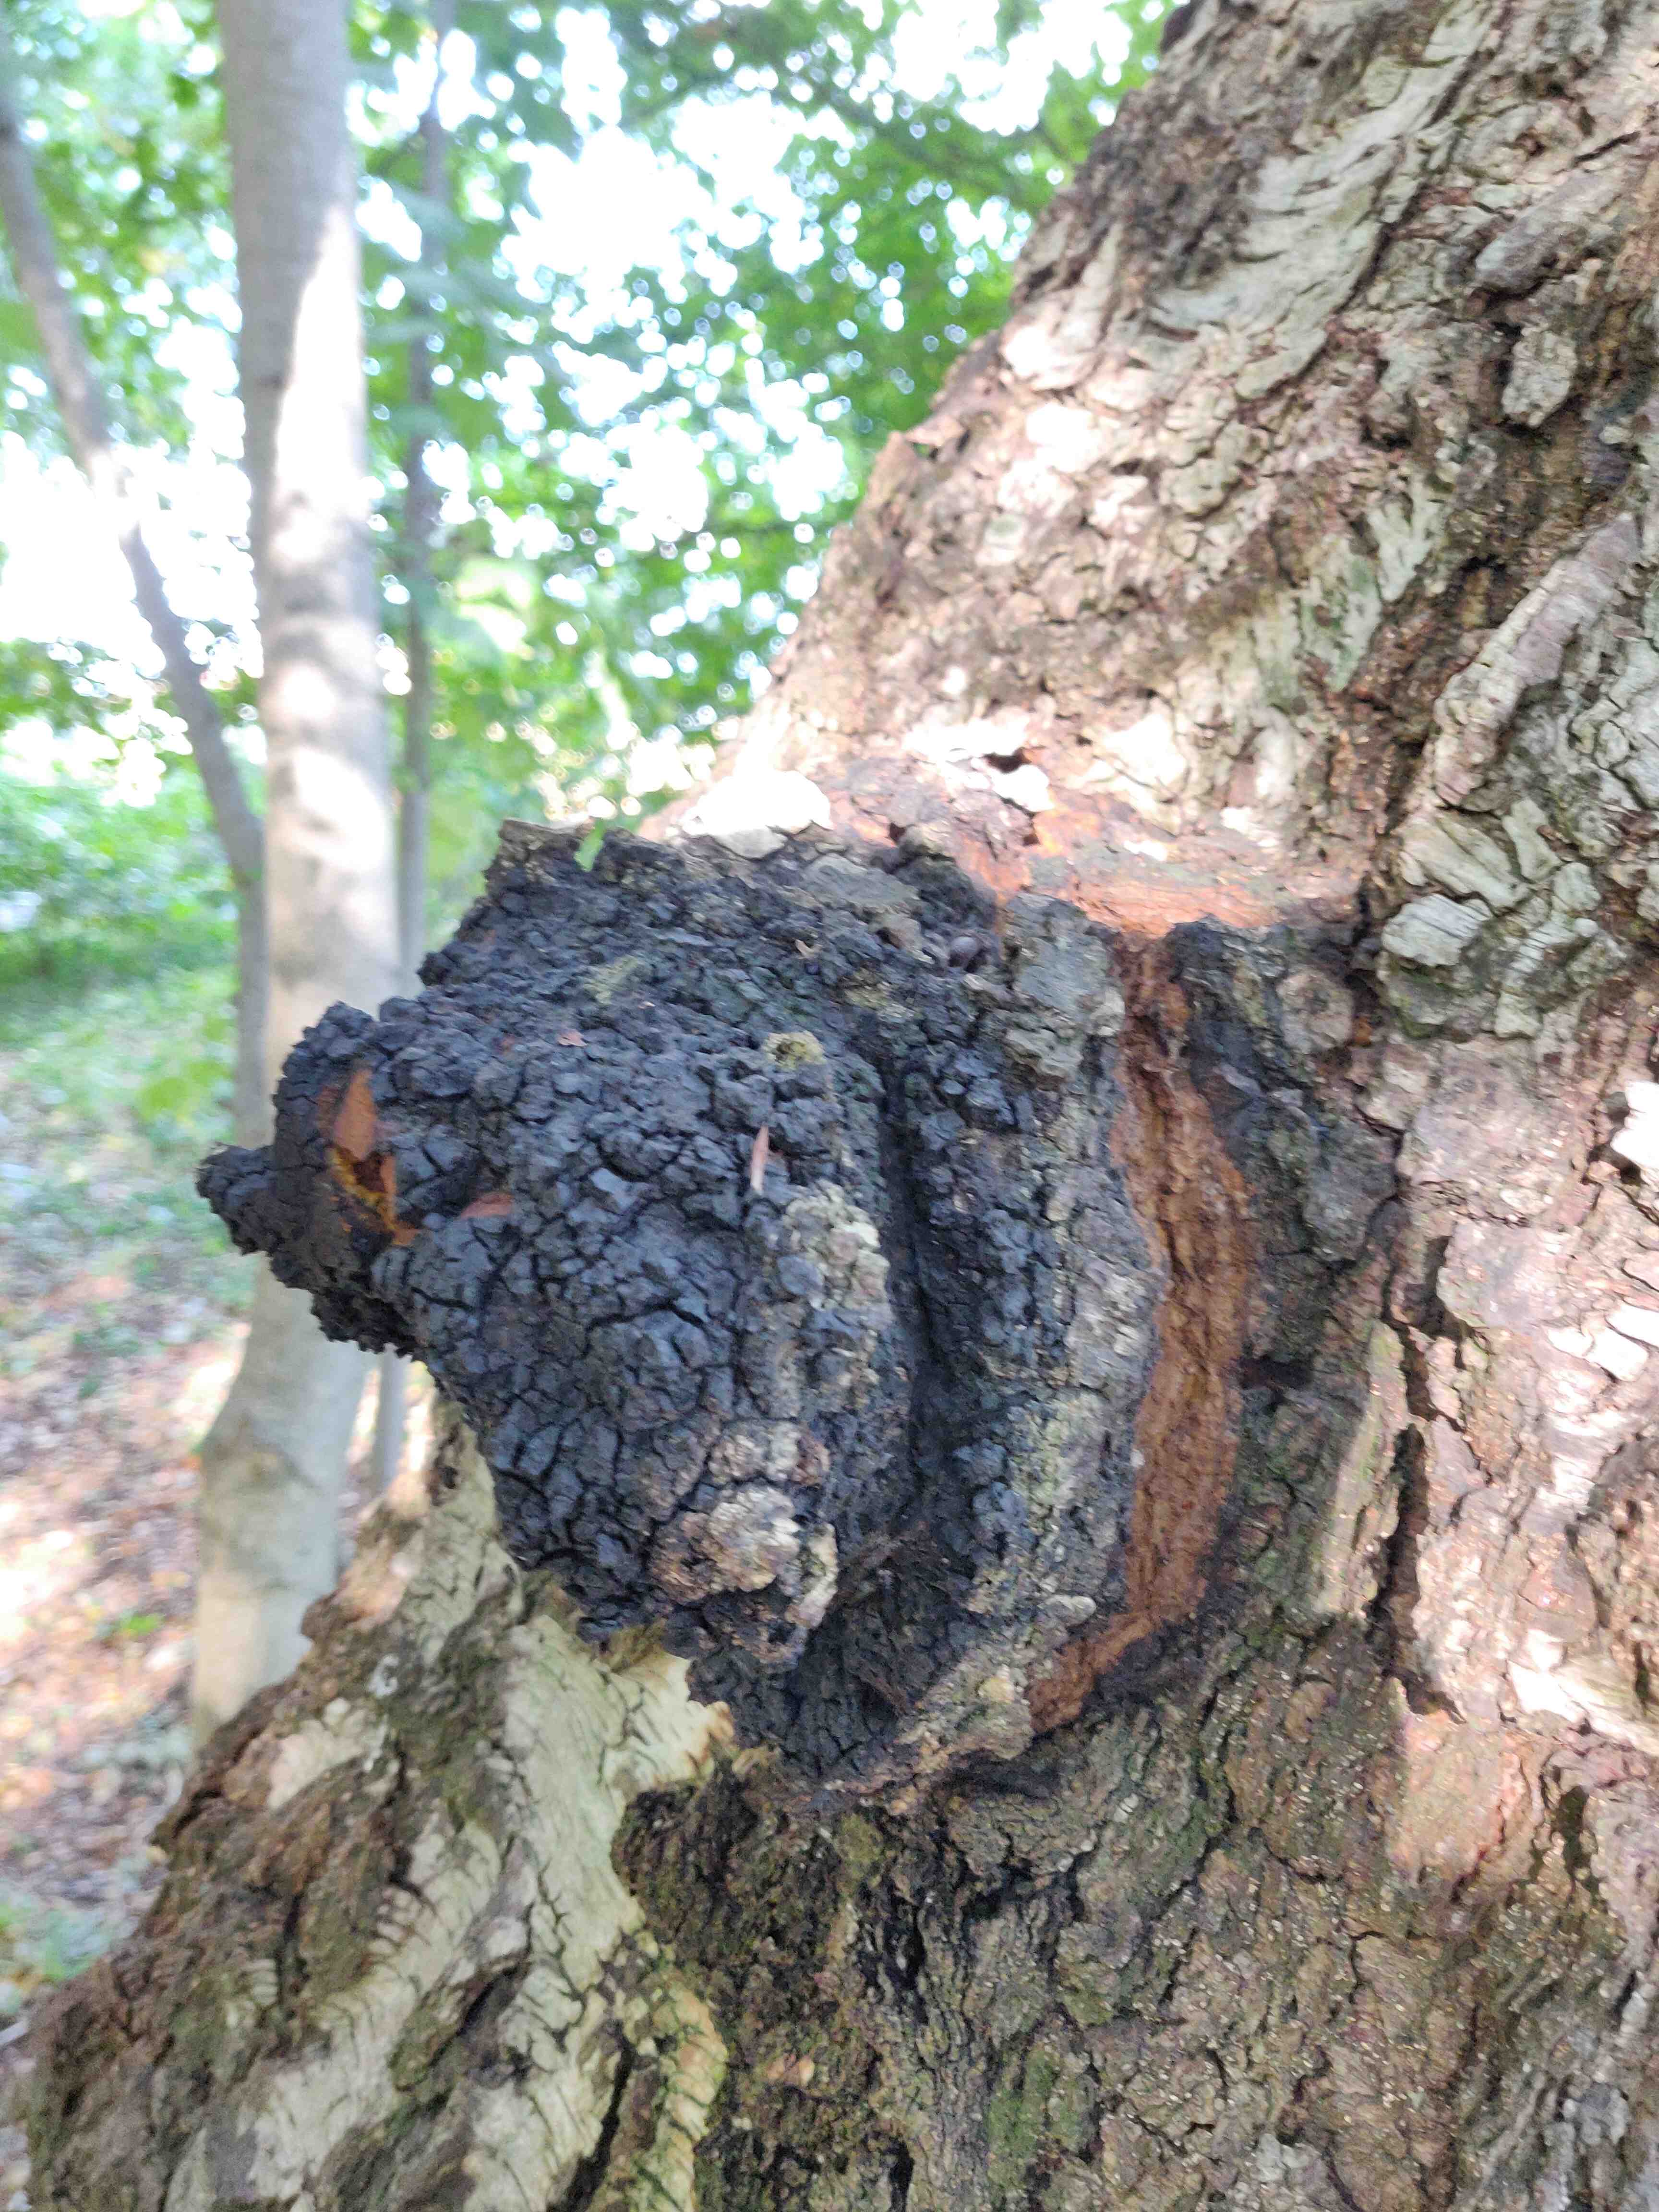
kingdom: Fungi
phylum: Basidiomycota
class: Agaricomycetes
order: Hymenochaetales
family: Hymenochaetaceae
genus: Inonotus
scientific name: Inonotus obliquus
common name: birke-spejlporesvamp
